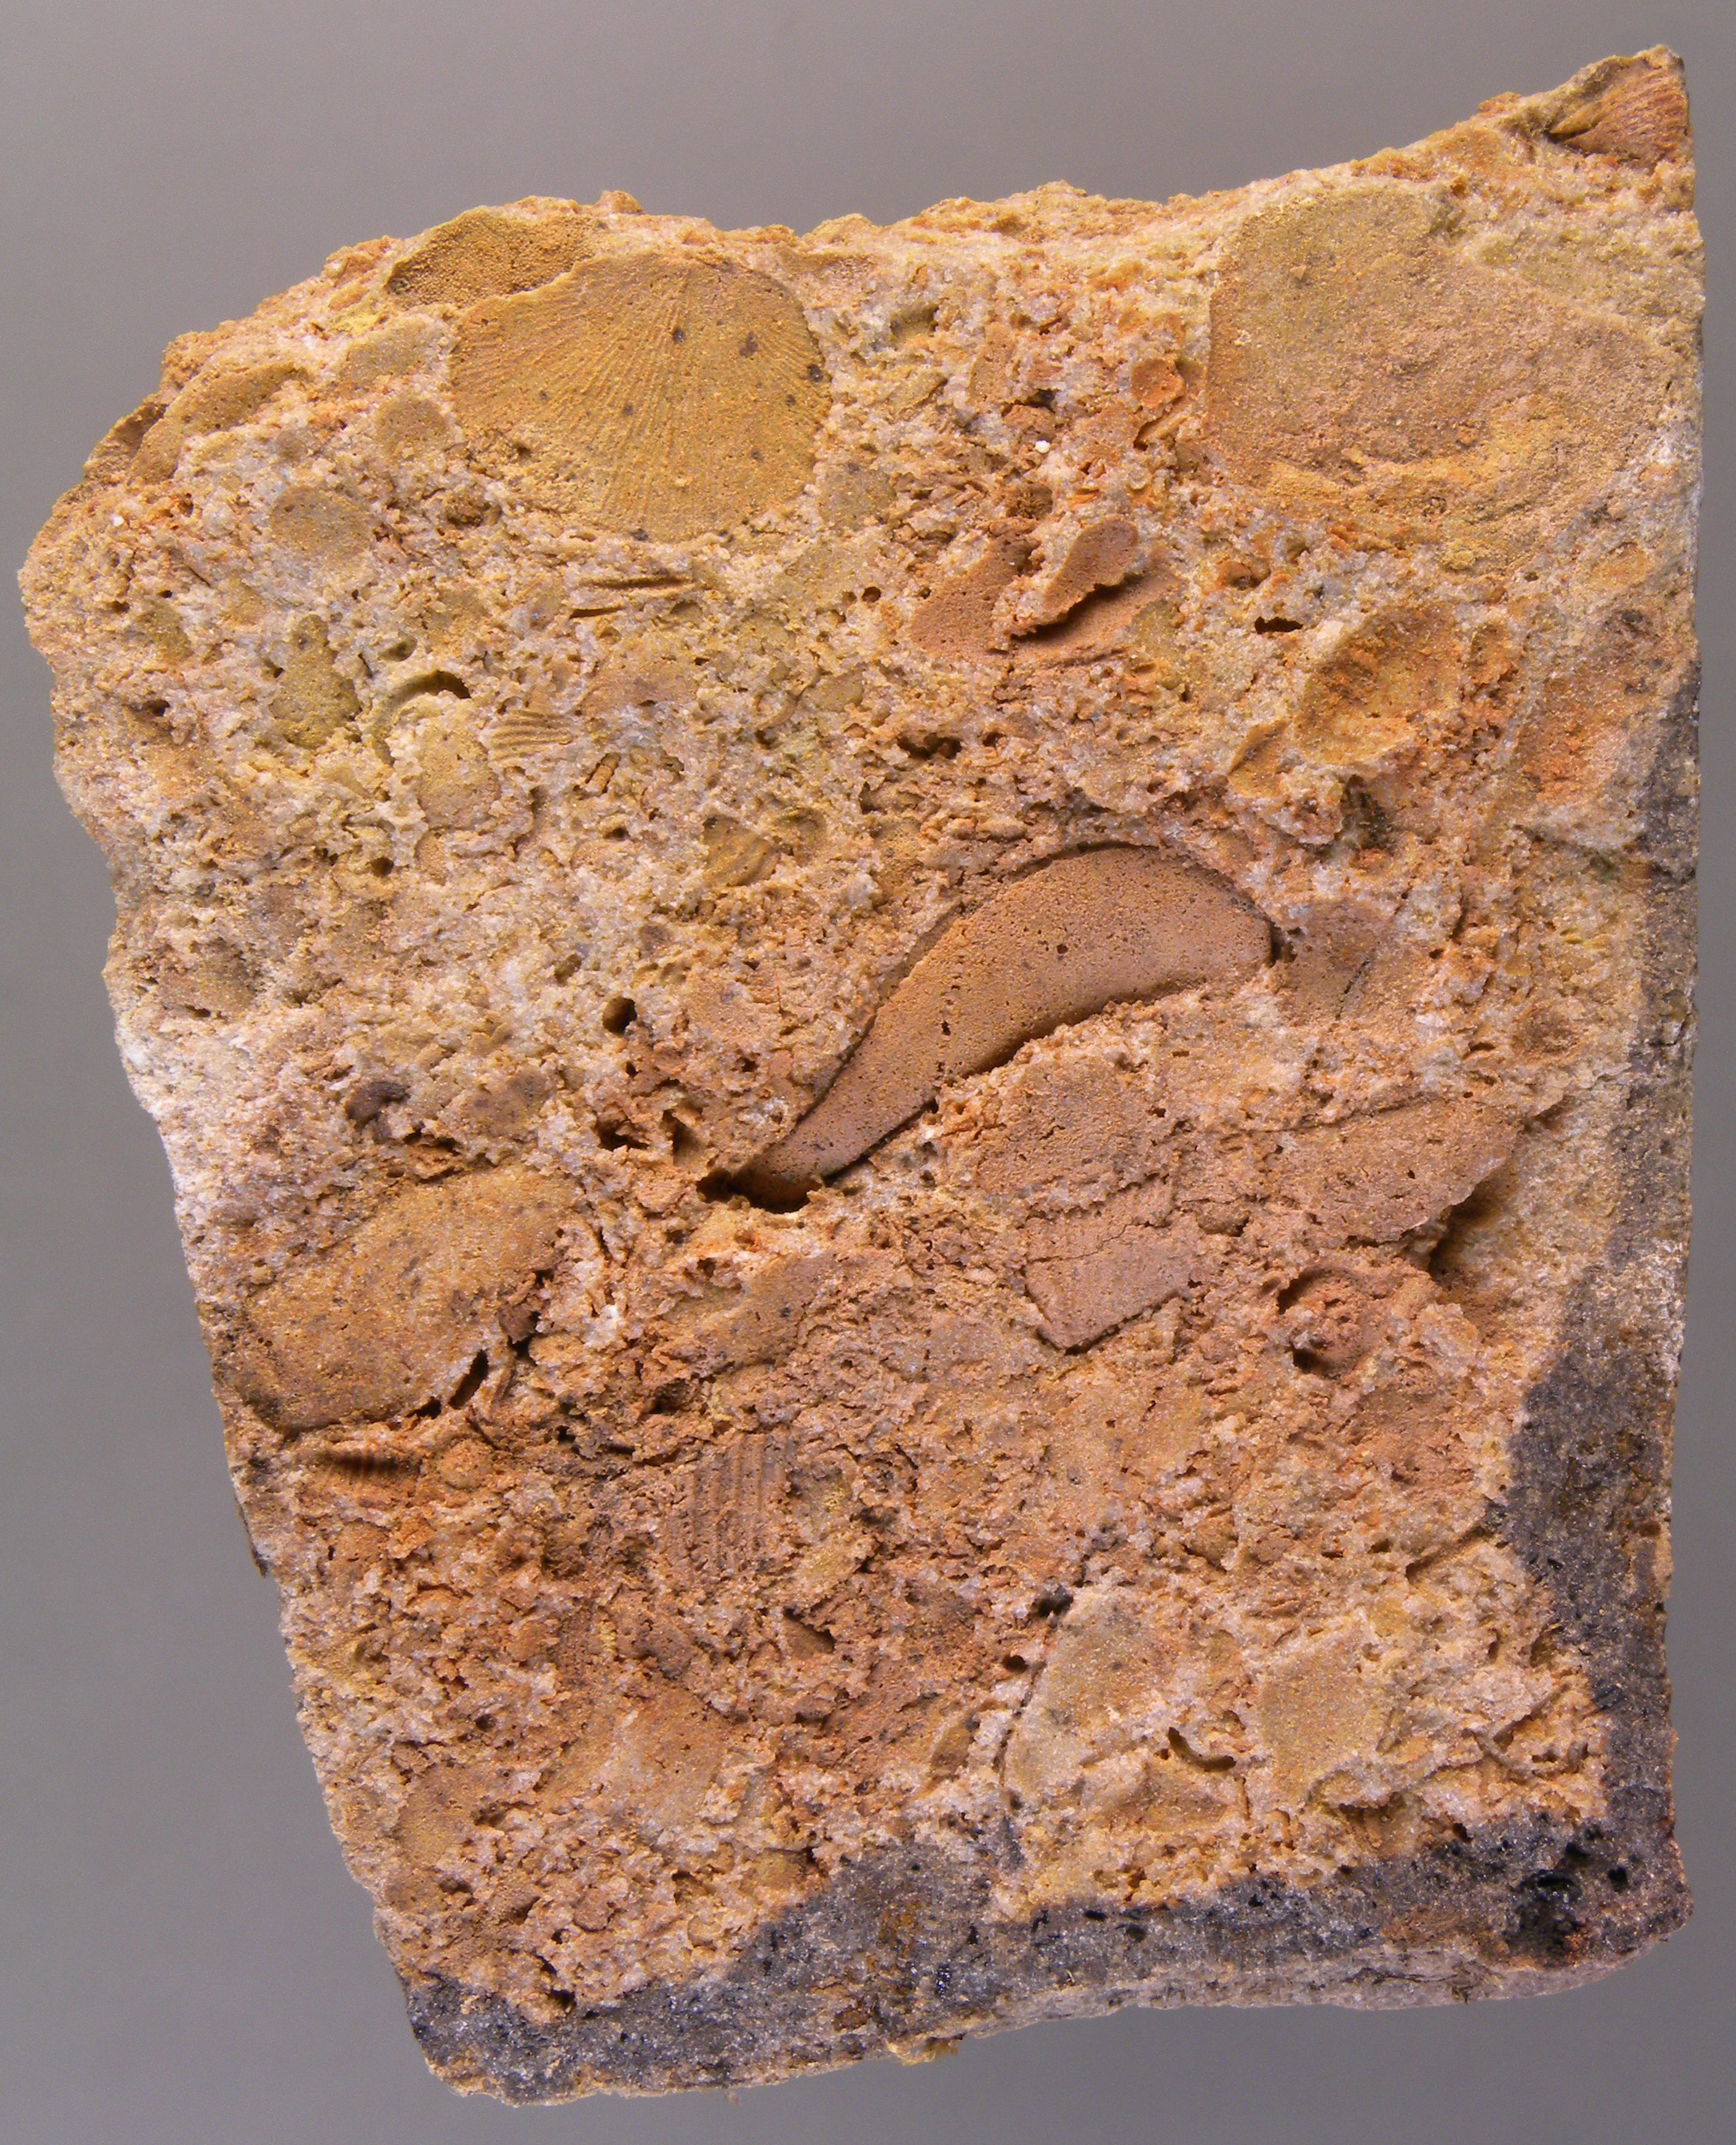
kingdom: Animalia
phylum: Brachiopoda
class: Rhynchonellata
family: Rhipidomellidae
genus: Platyorthis
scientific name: Platyorthis
